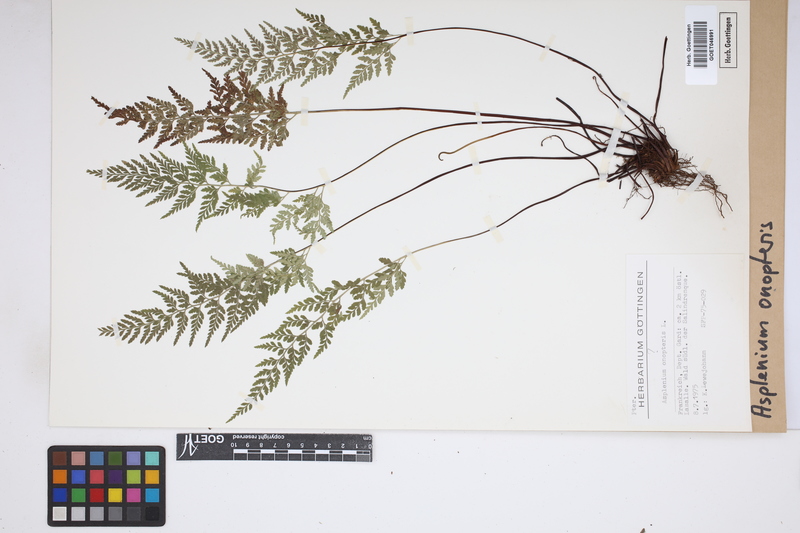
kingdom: Plantae
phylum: Tracheophyta
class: Polypodiopsida
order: Polypodiales
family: Aspleniaceae
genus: Asplenium
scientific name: Asplenium onopteris
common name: Irish spleenwort
